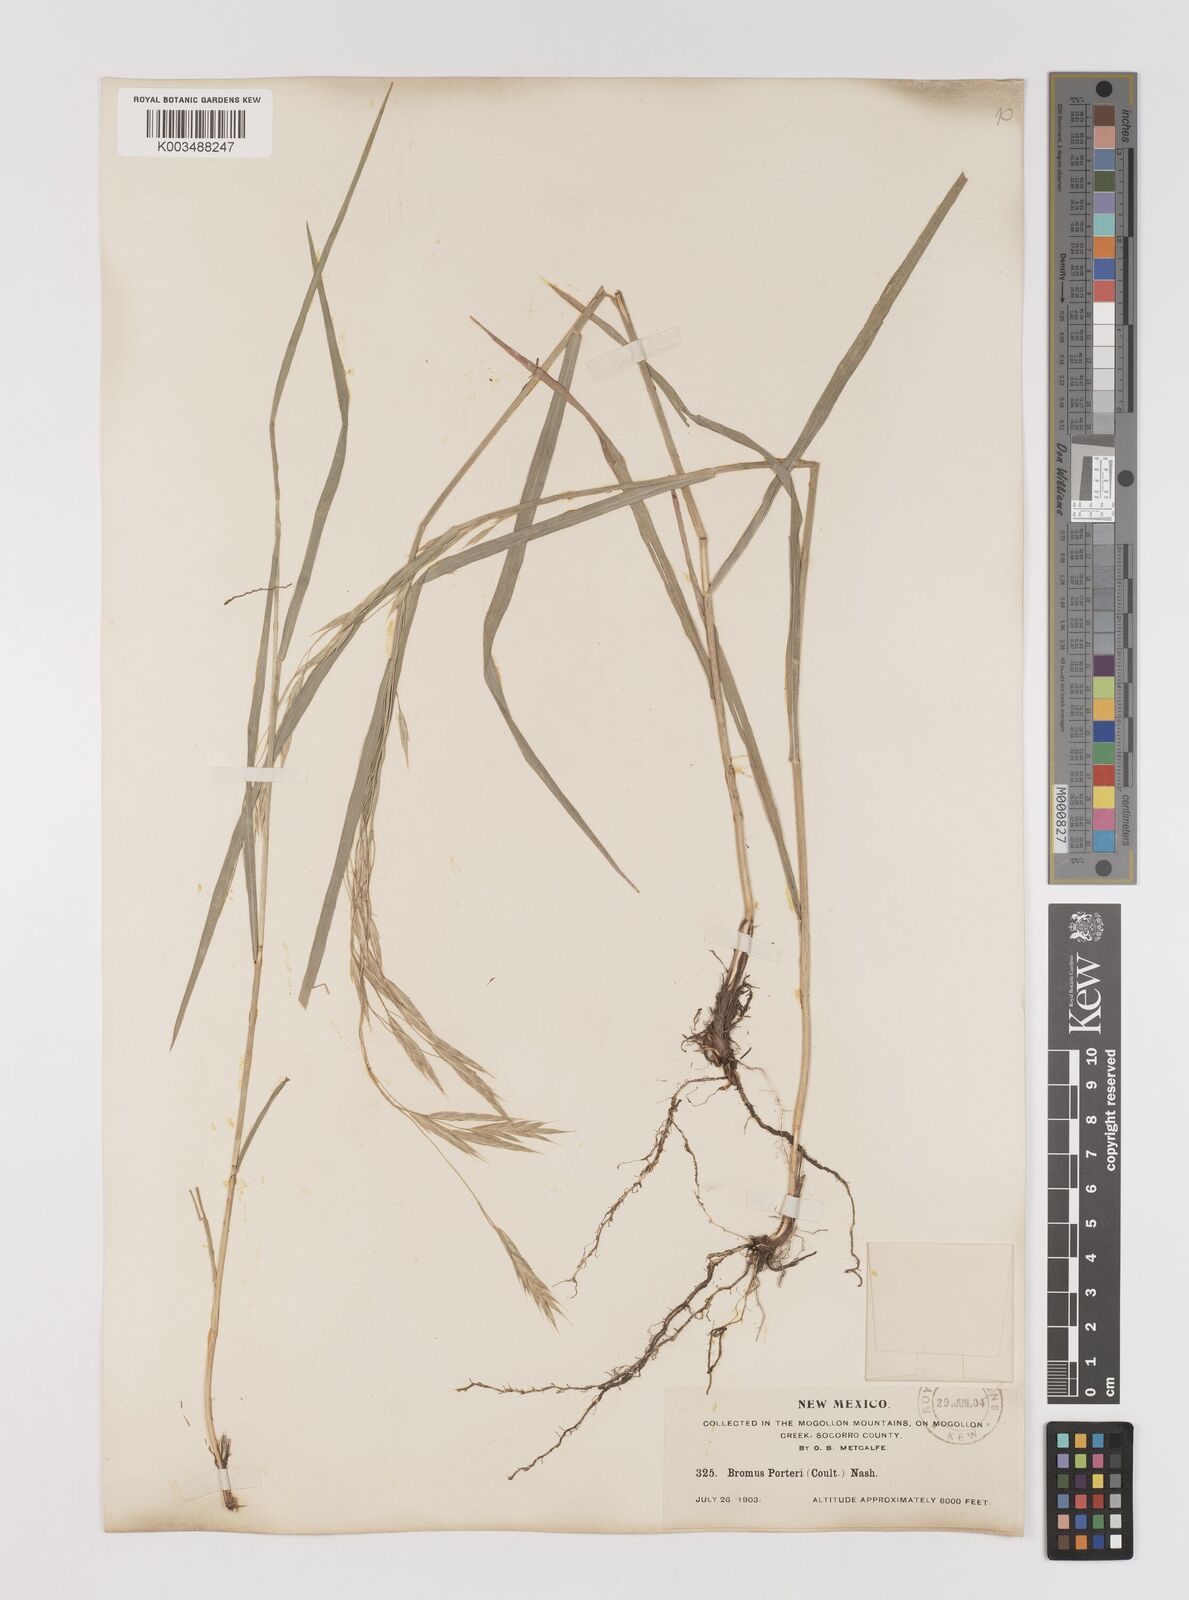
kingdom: Plantae
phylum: Tracheophyta
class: Liliopsida
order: Poales
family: Poaceae
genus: Bromus
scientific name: Bromus porteri
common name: Nodding brome
